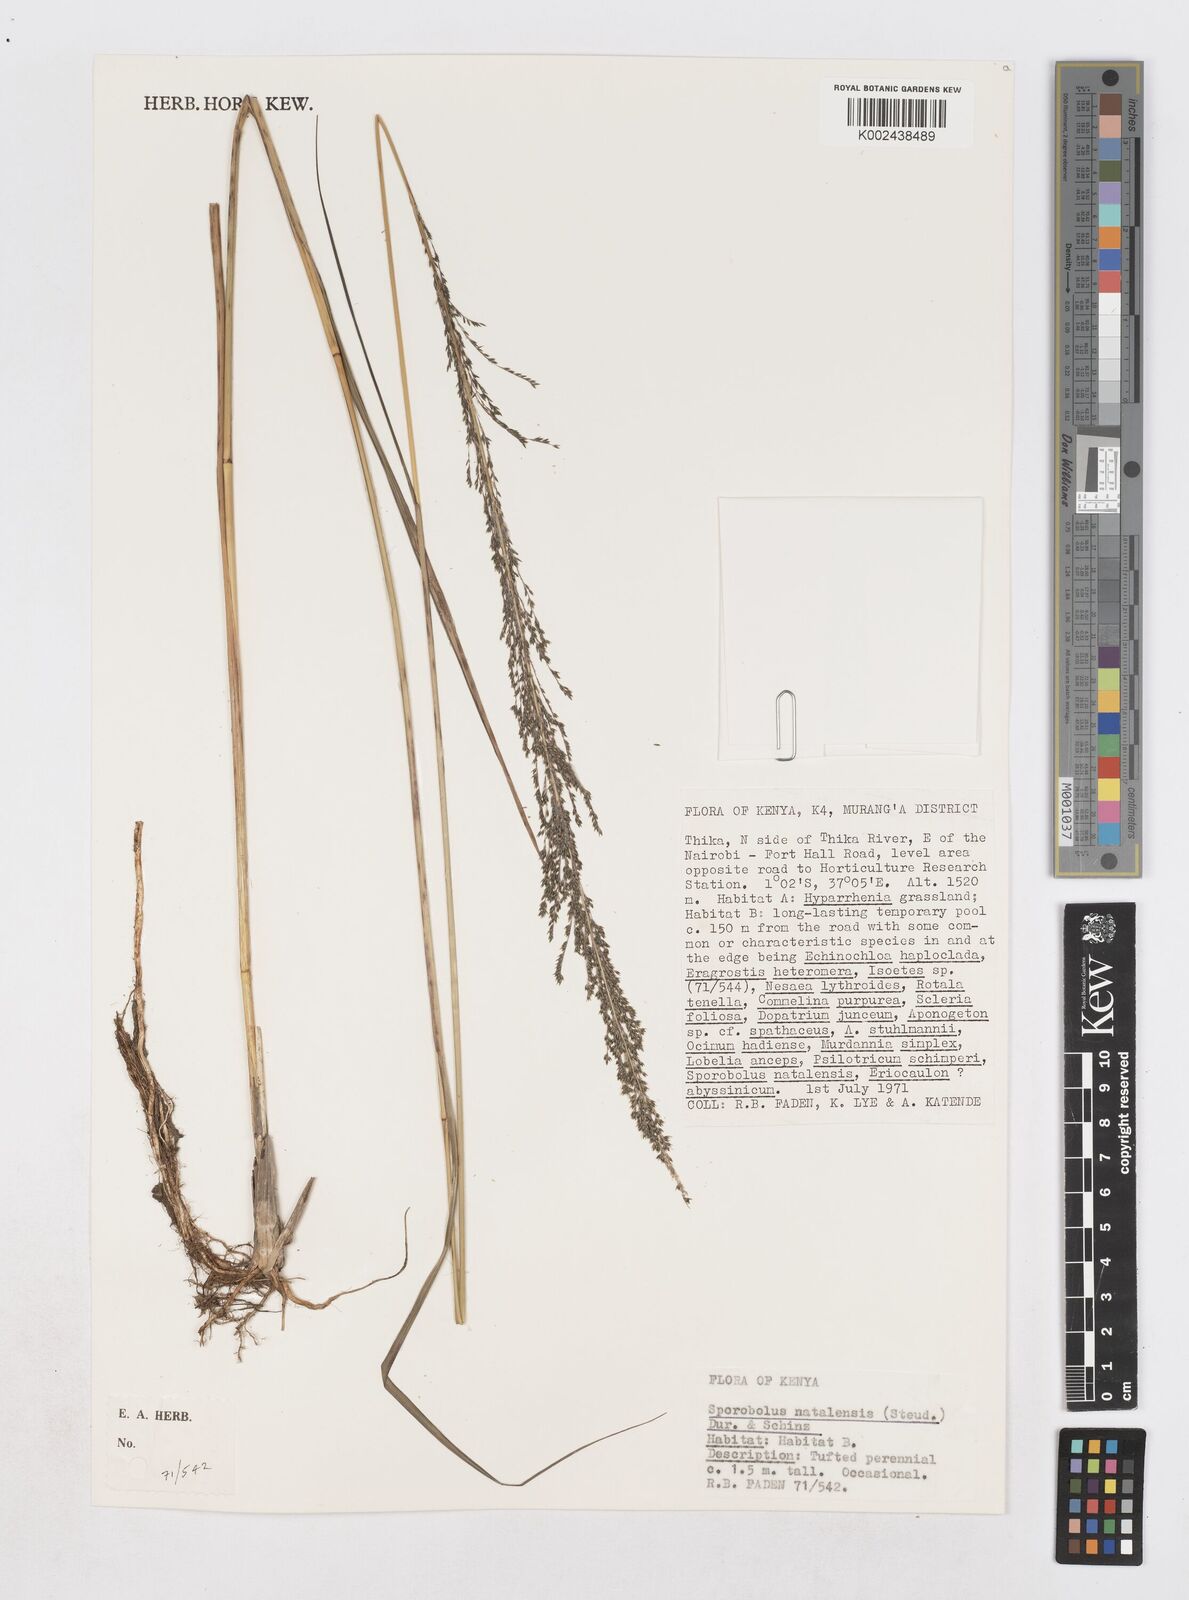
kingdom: Plantae
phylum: Tracheophyta
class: Liliopsida
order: Poales
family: Poaceae
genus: Sporobolus
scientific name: Sporobolus natalensis
